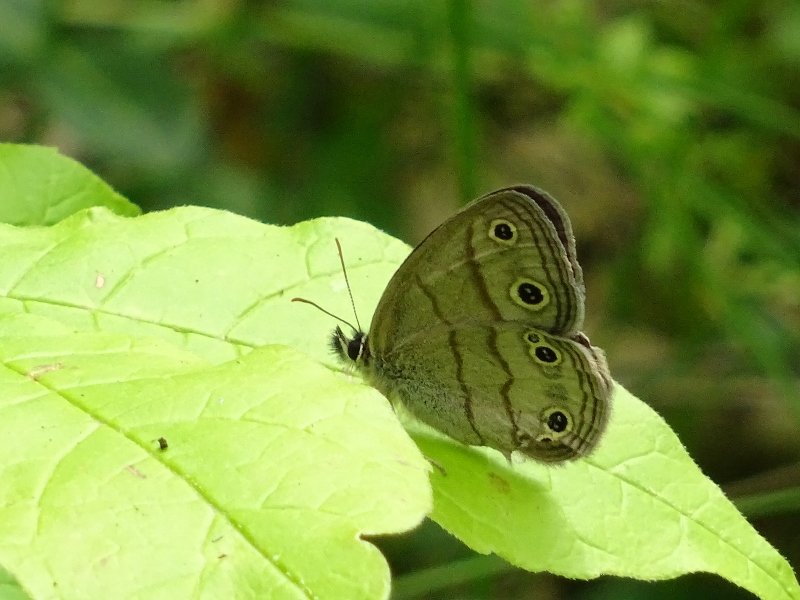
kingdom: Animalia
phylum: Arthropoda
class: Insecta
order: Lepidoptera
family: Nymphalidae
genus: Euptychia
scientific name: Euptychia cymela
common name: Little Wood Satyr
